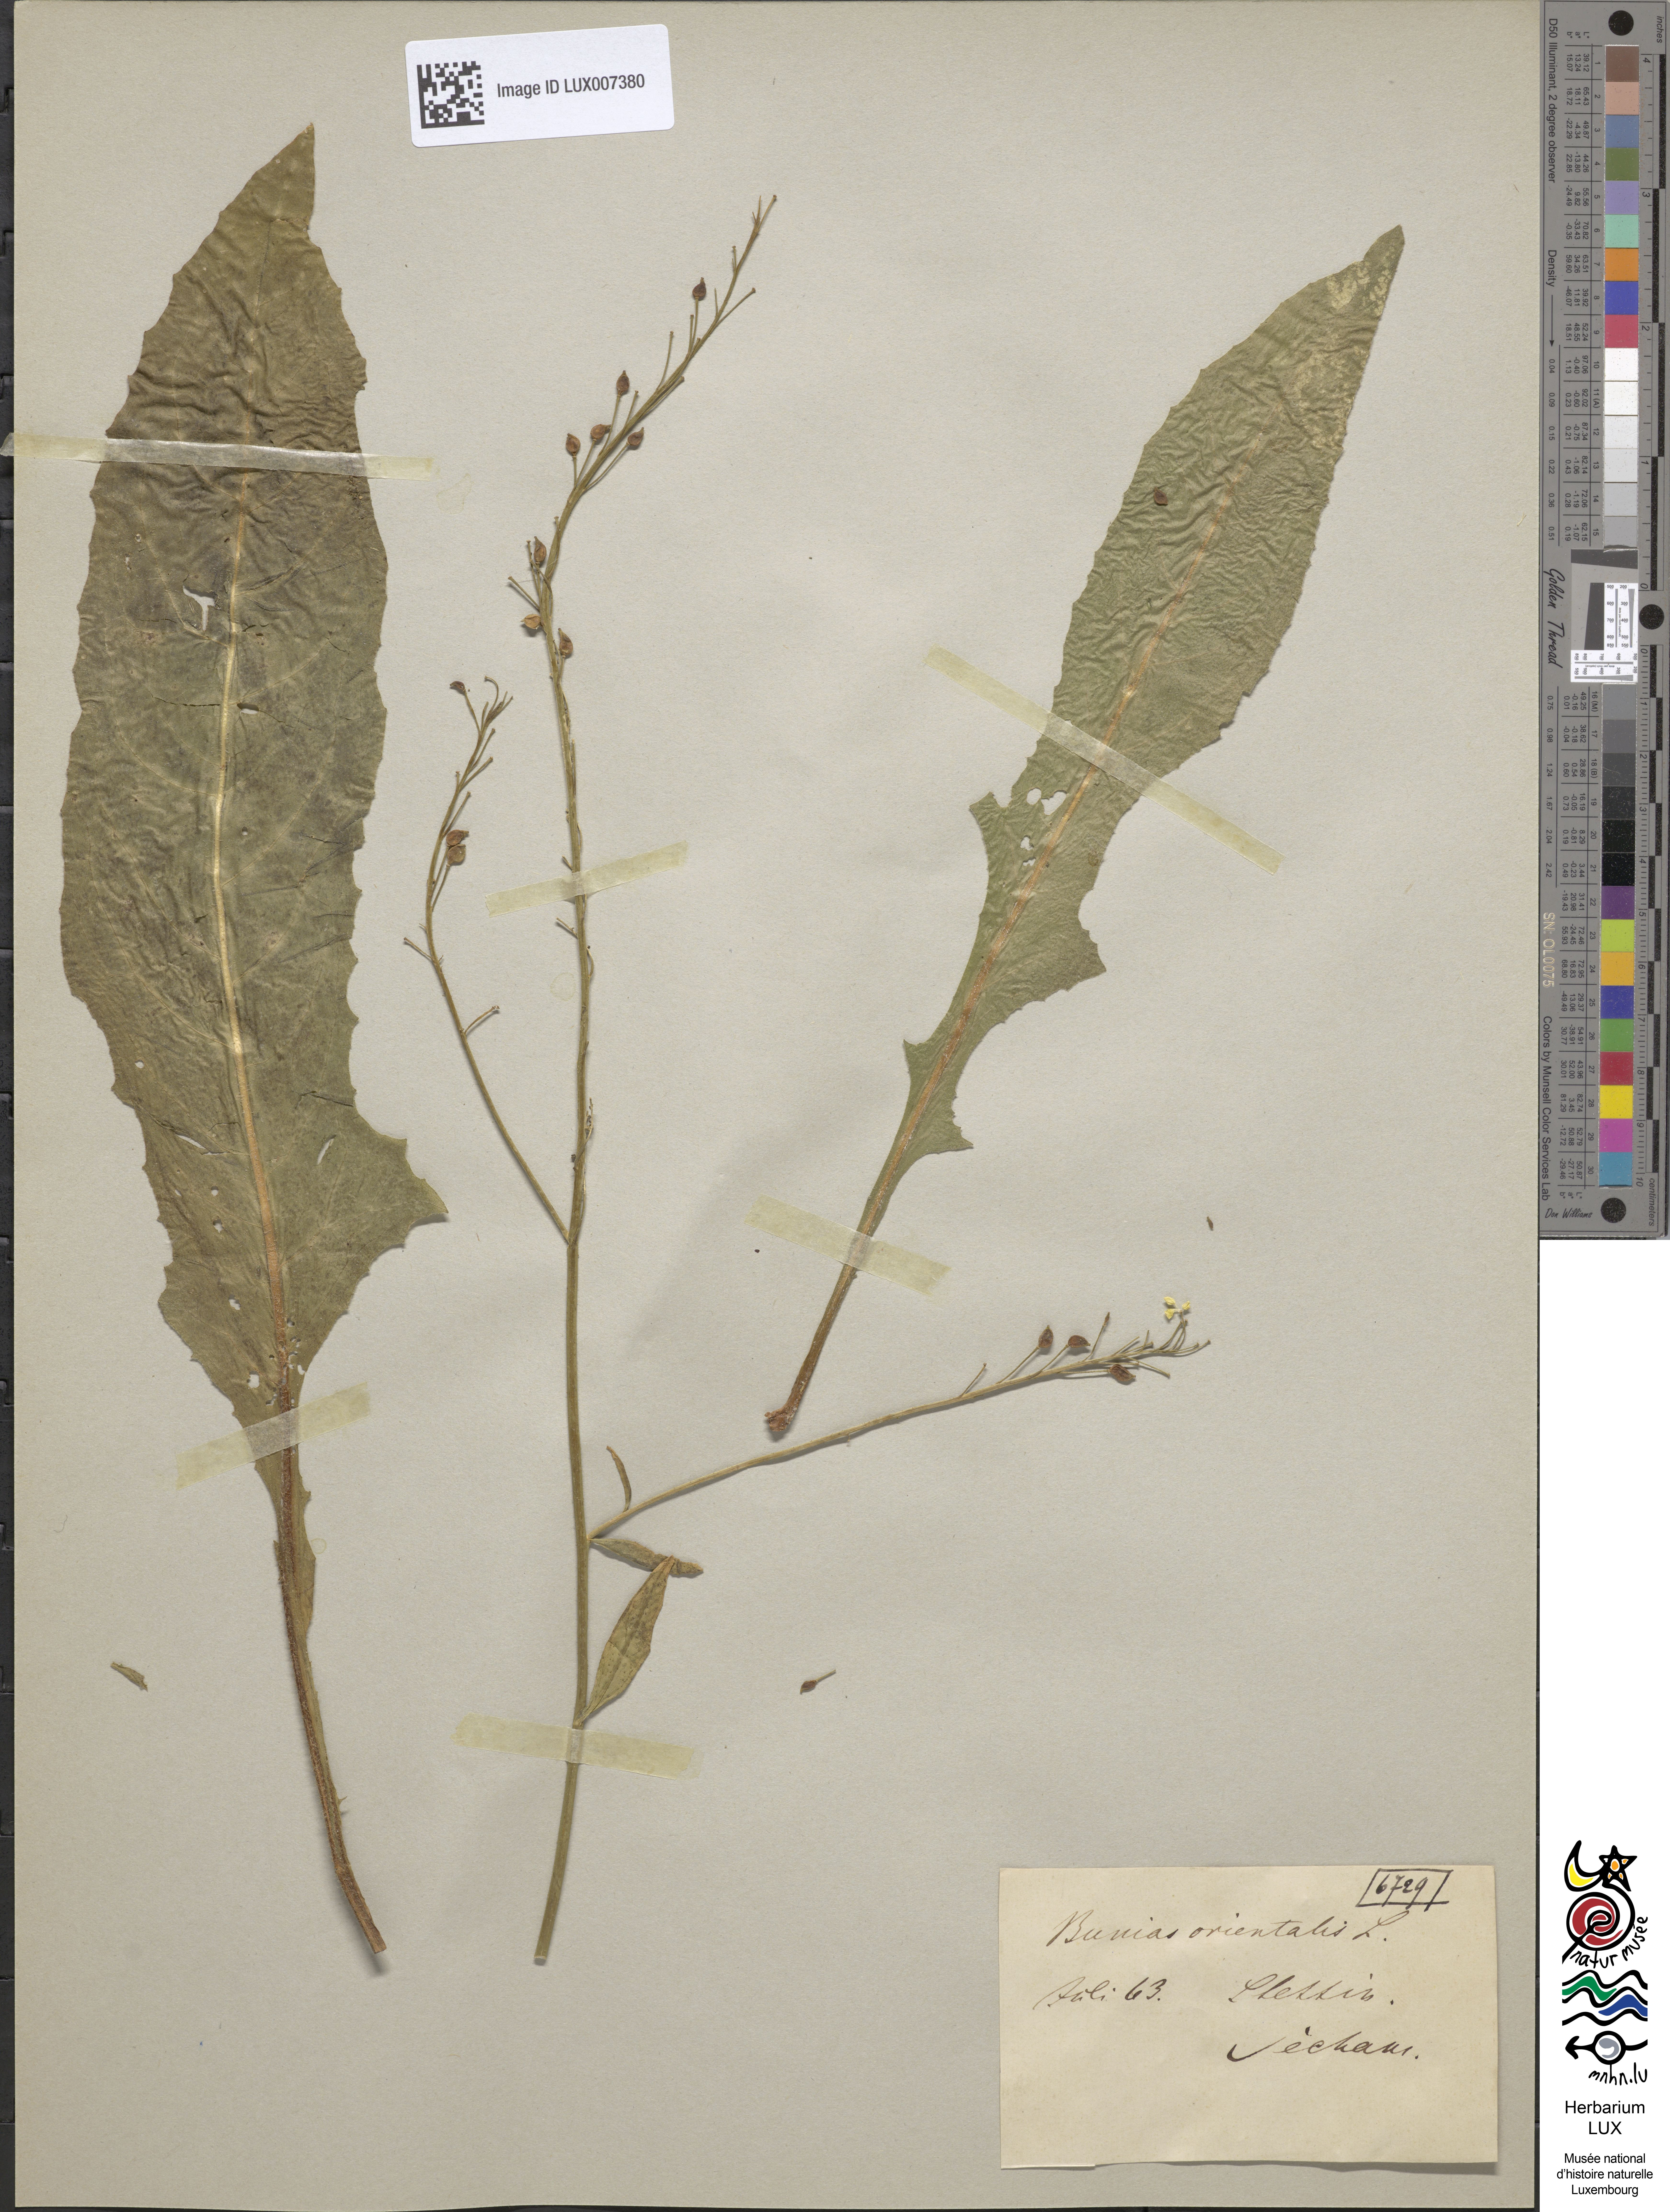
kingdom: Plantae
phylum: Tracheophyta
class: Magnoliopsida
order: Brassicales
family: Brassicaceae
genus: Bunias
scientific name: Bunias orientalis
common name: Warty-cabbage
